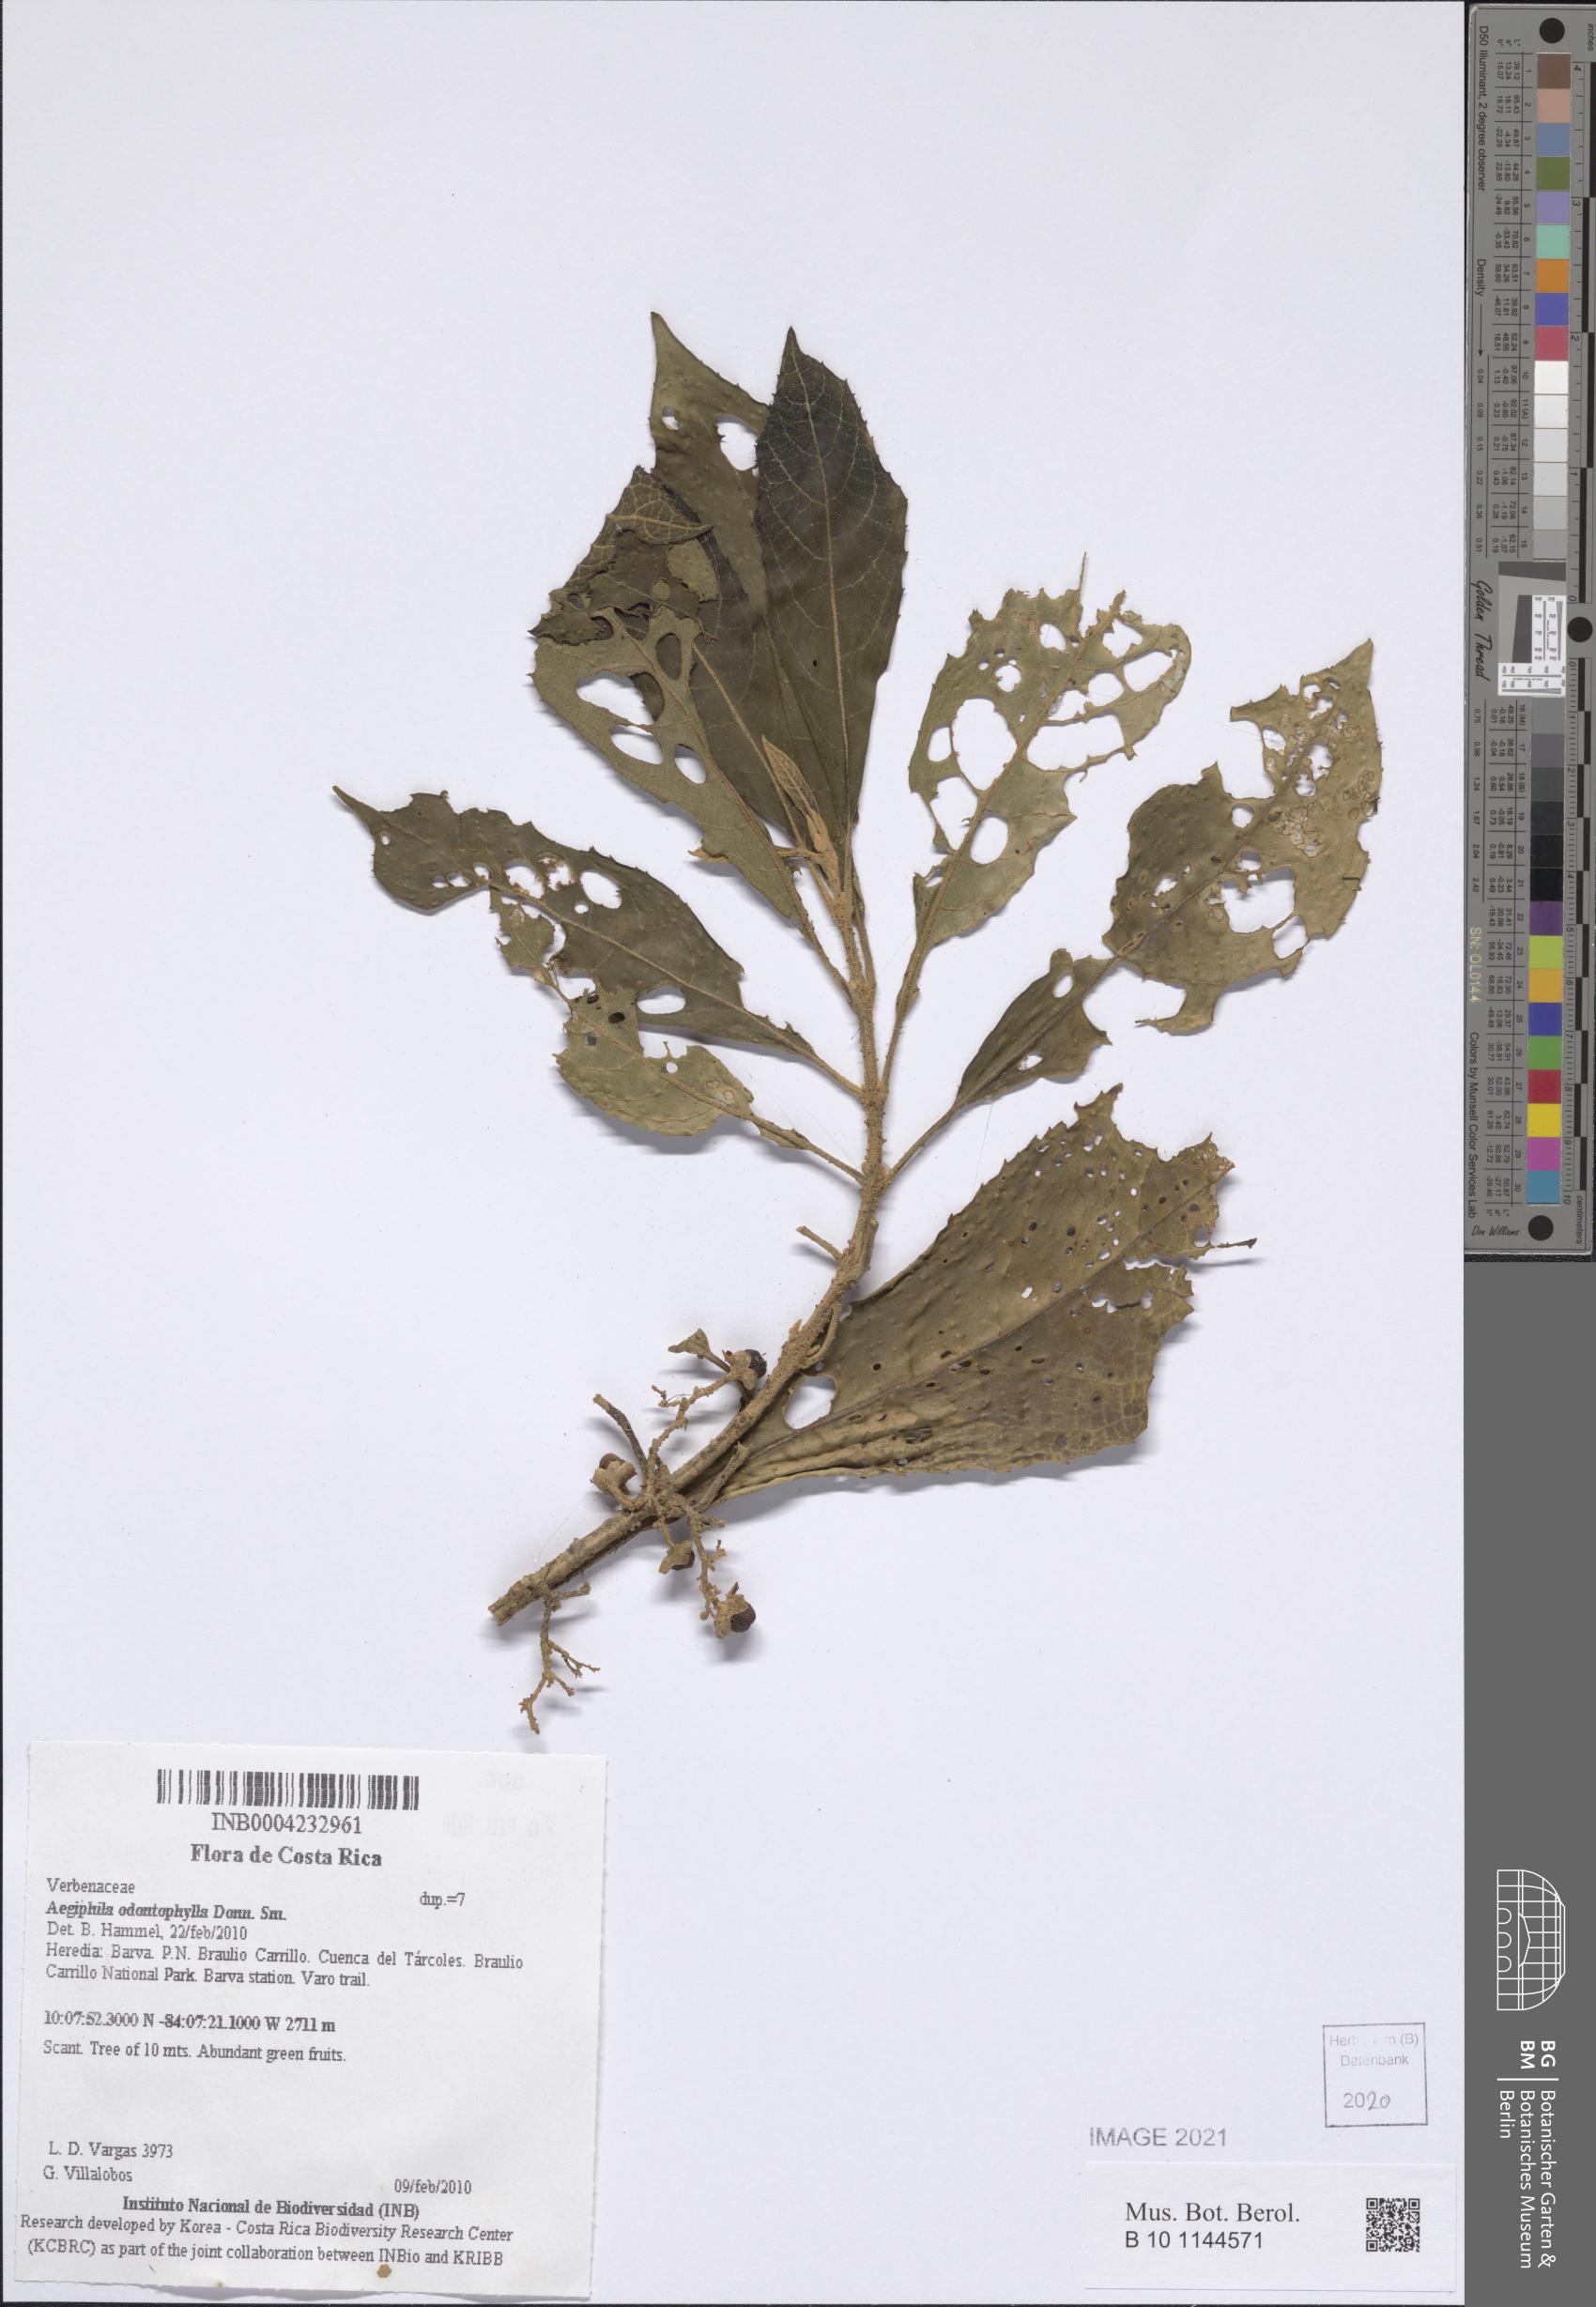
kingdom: Plantae
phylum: Tracheophyta
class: Magnoliopsida
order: Lamiales
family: Lamiaceae
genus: Aegiphila
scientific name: Aegiphila odontophylla
